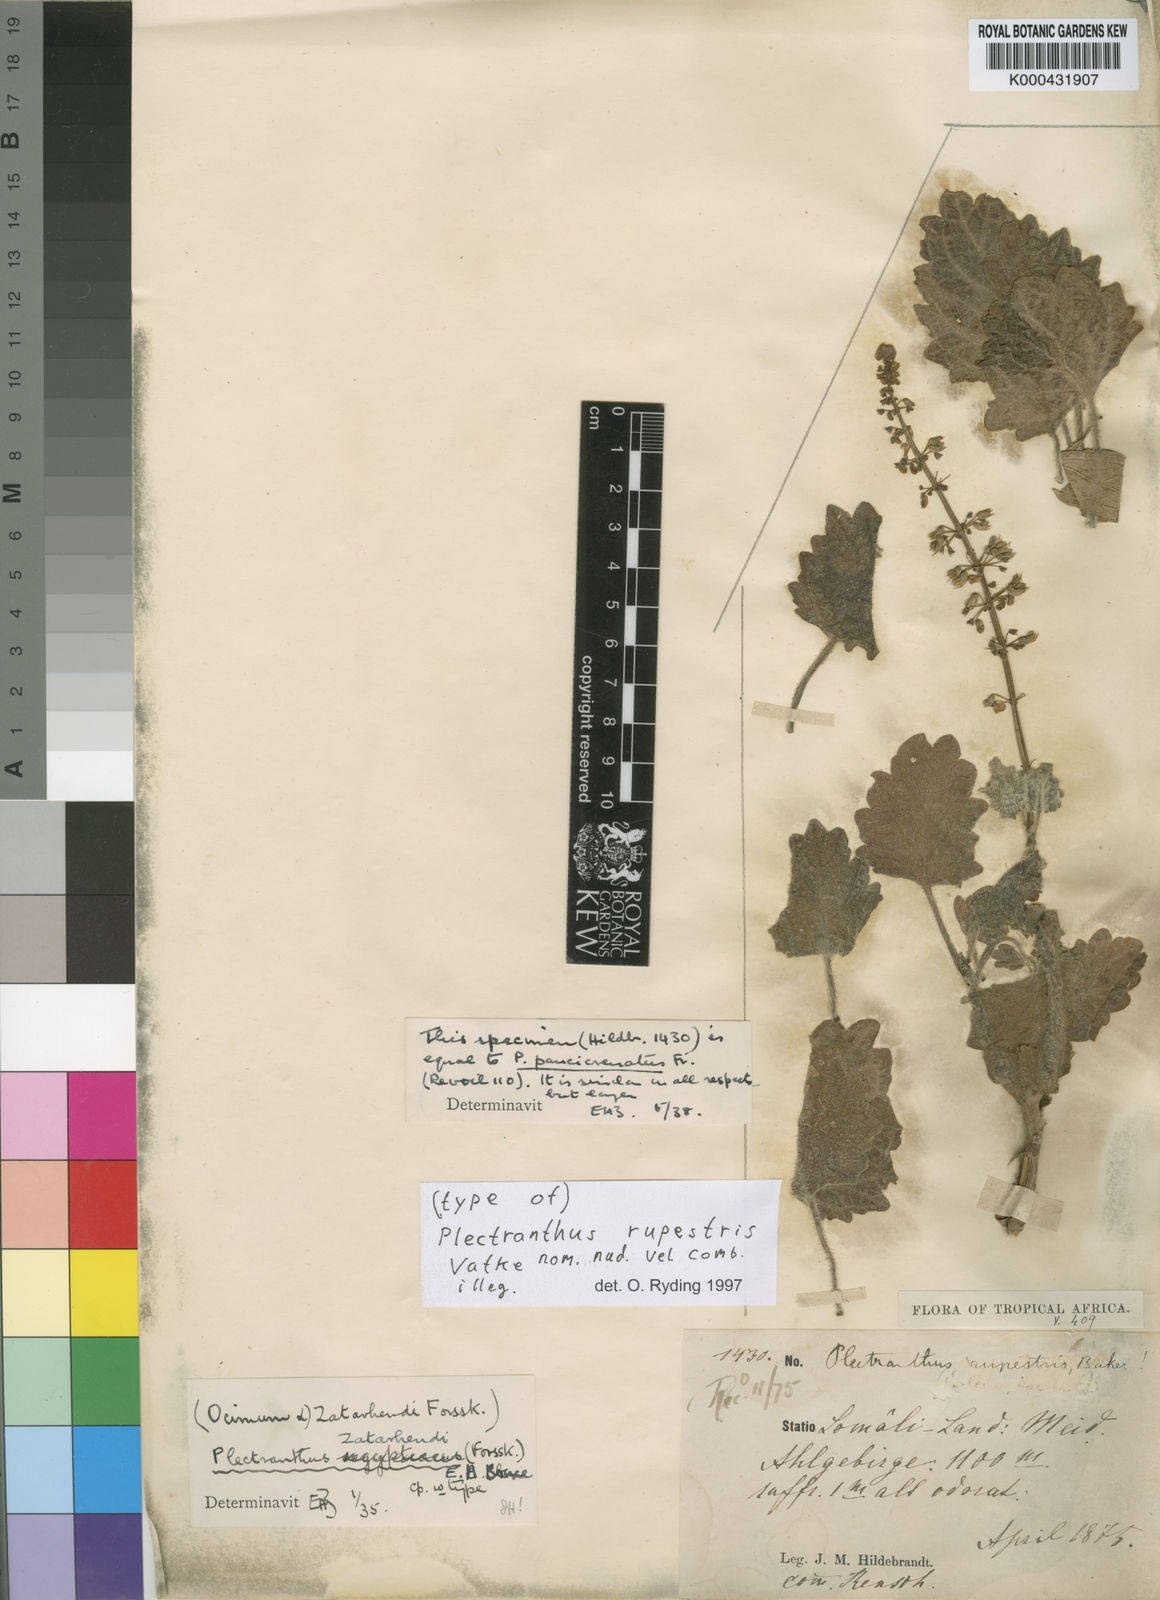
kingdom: Plantae
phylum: Tracheophyta
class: Magnoliopsida
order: Lamiales
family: Lamiaceae
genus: Coleus
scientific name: Coleus hadiensis
